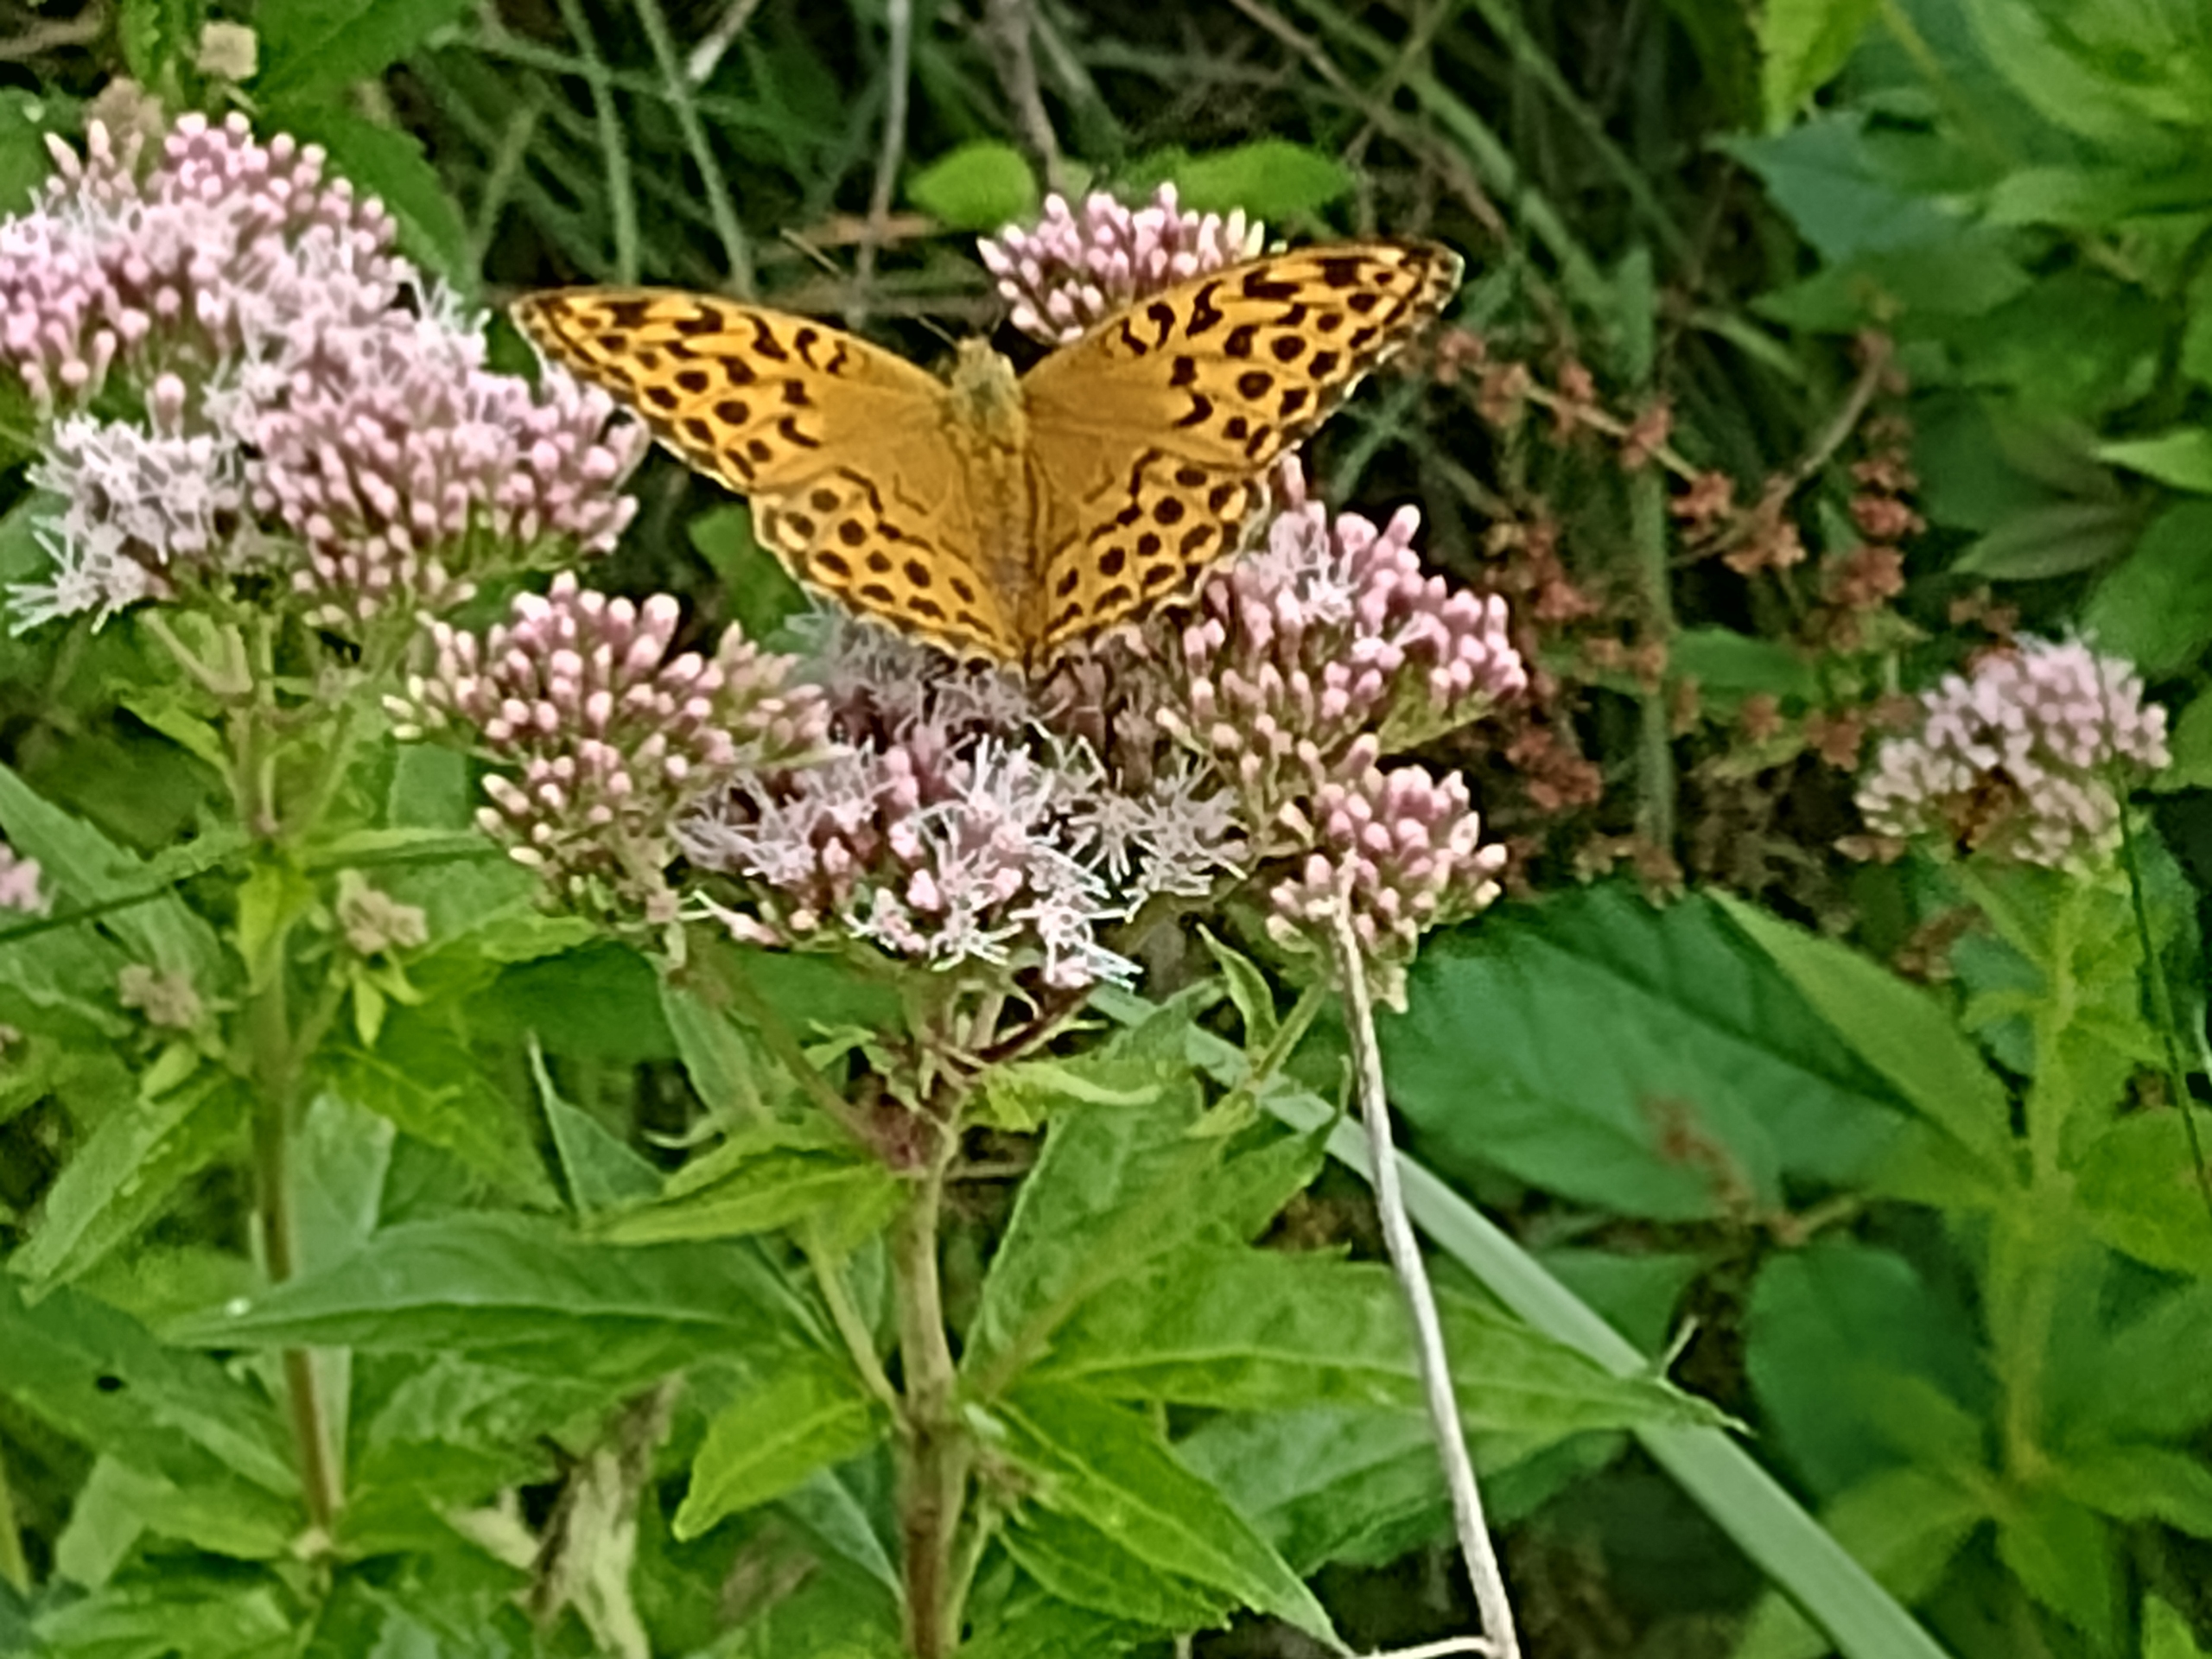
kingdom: Animalia
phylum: Arthropoda
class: Insecta
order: Lepidoptera
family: Nymphalidae
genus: Argynnis
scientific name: Argynnis paphia
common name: Kejserkåbe
